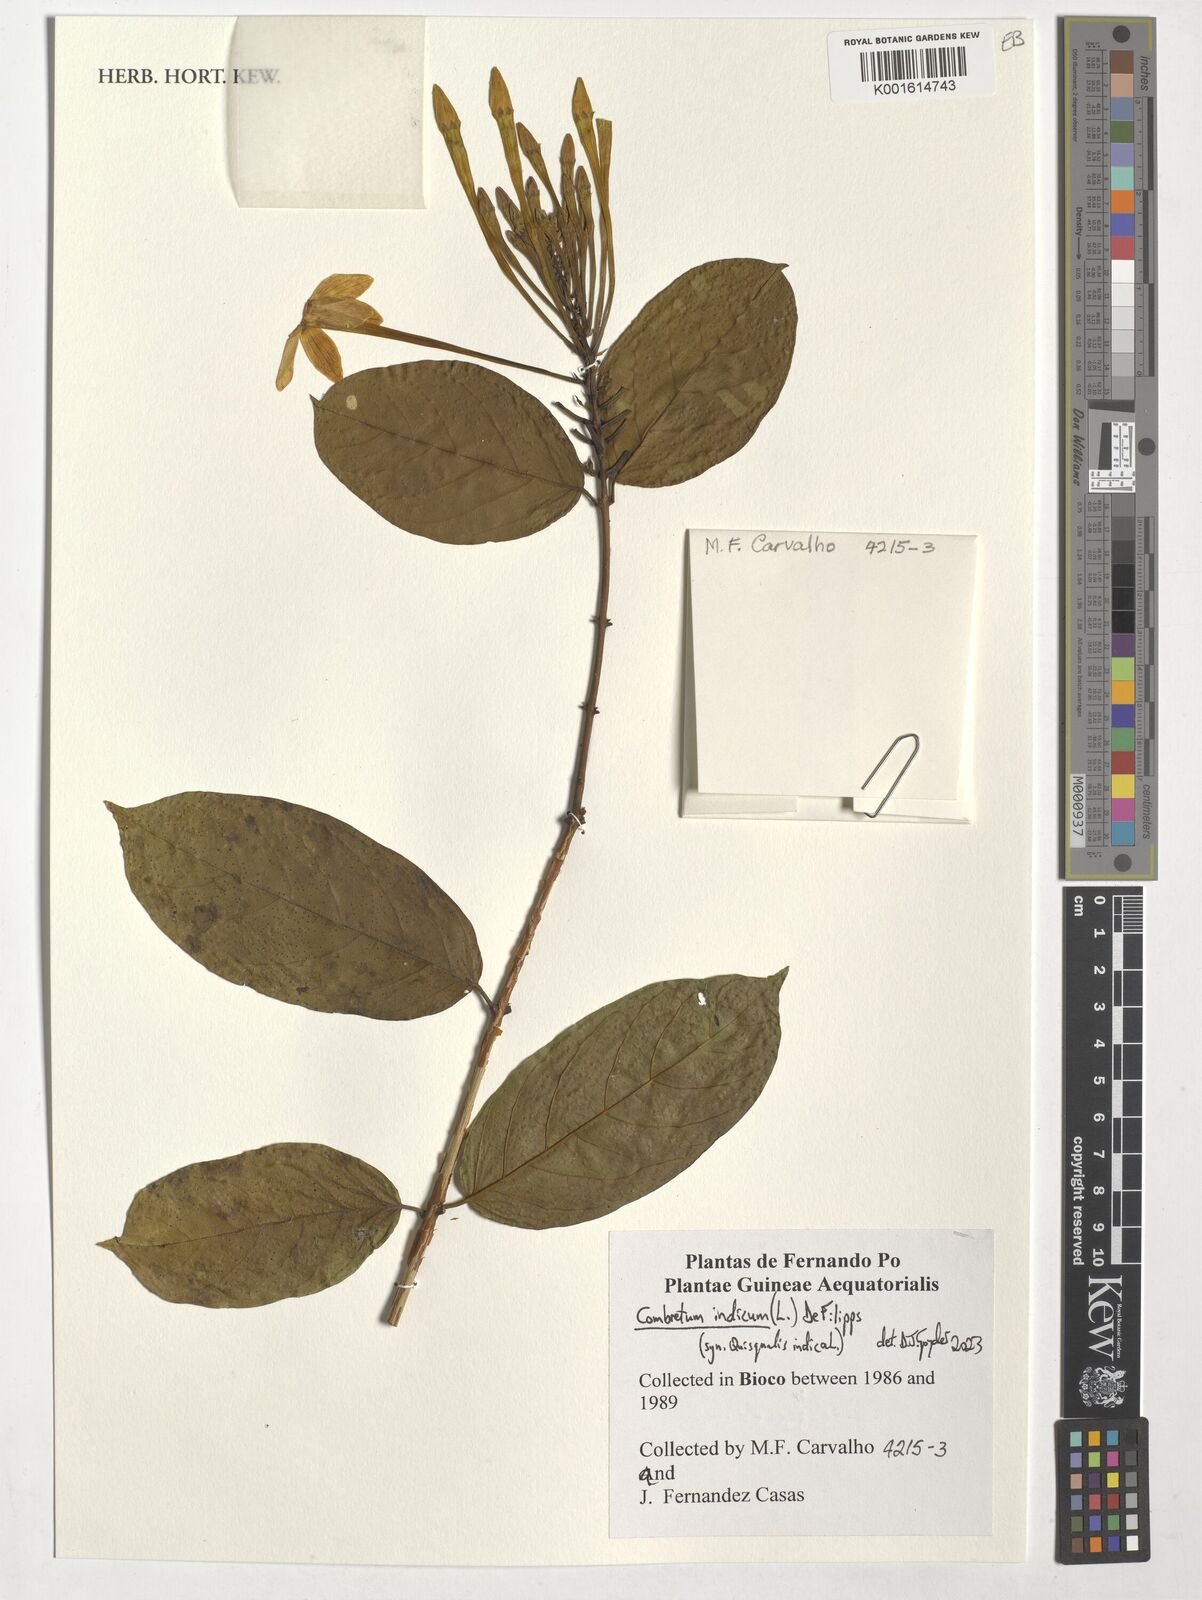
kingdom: Plantae
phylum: Tracheophyta
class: Magnoliopsida
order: Myrtales
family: Combretaceae
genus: Combretum
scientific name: Combretum indicum
